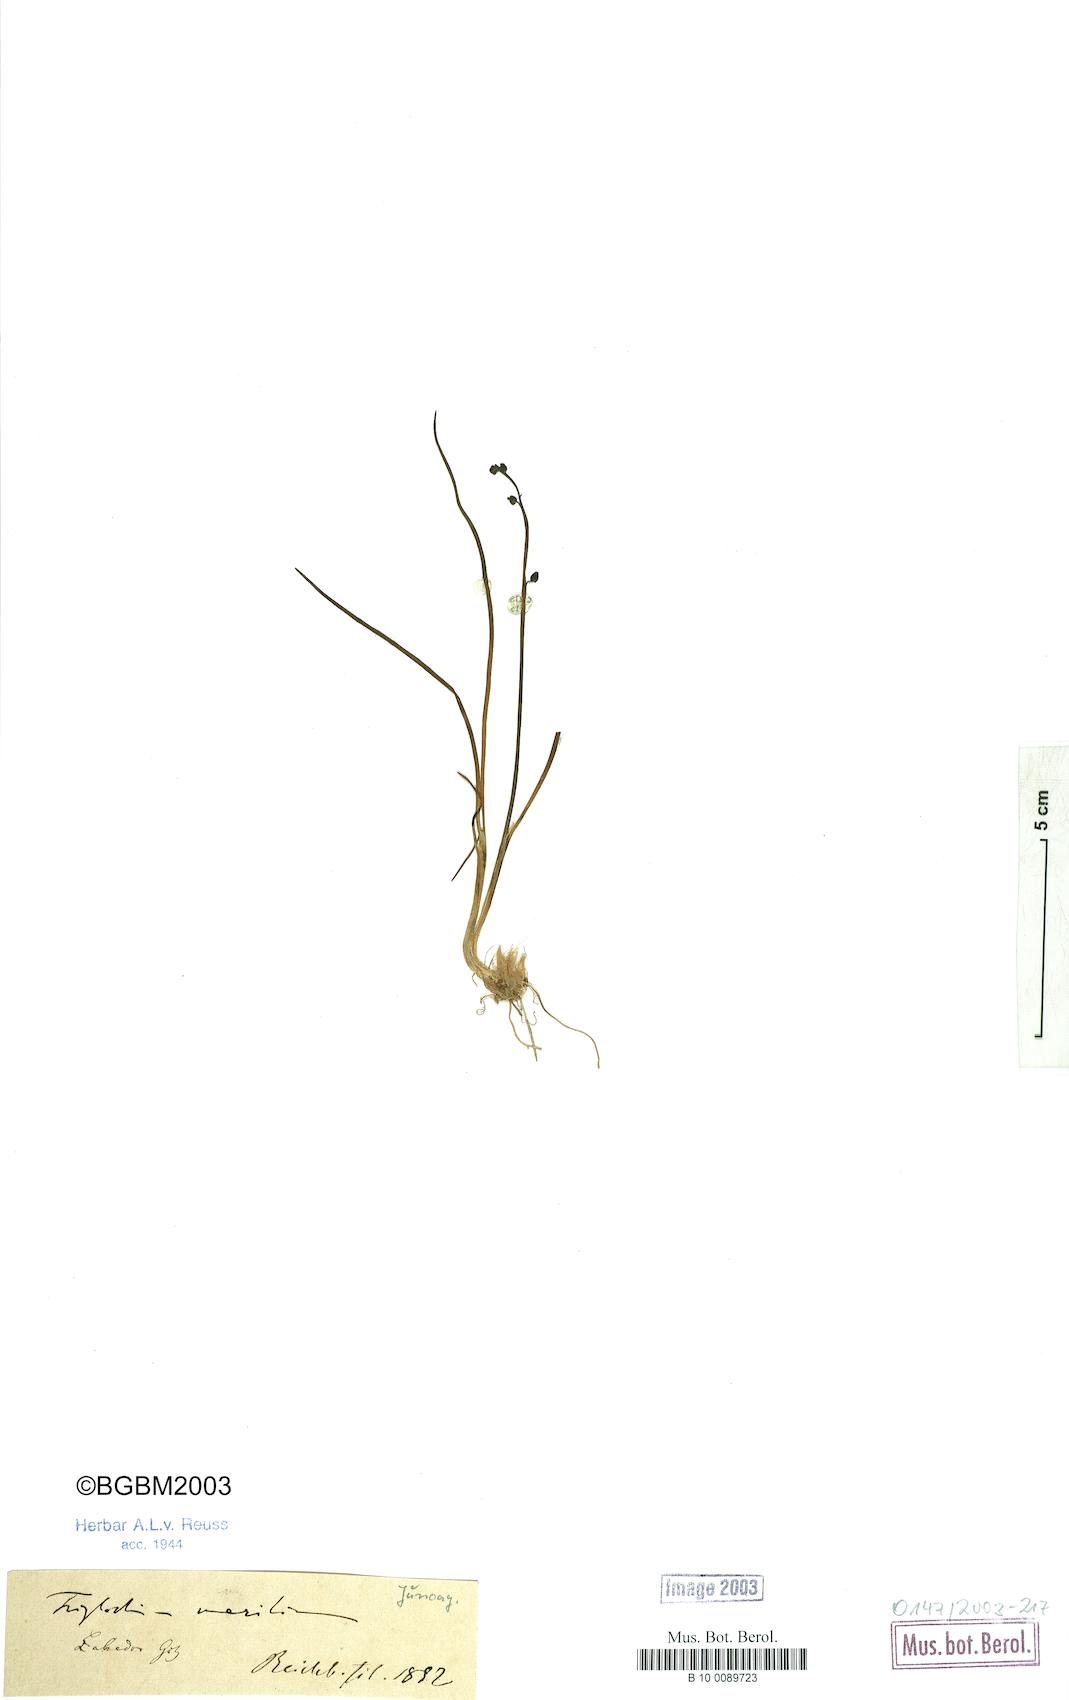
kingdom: Plantae
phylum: Tracheophyta
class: Liliopsida
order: Alismatales
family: Juncaginaceae
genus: Triglochin
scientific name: Triglochin maritima
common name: Sea arrowgrass
